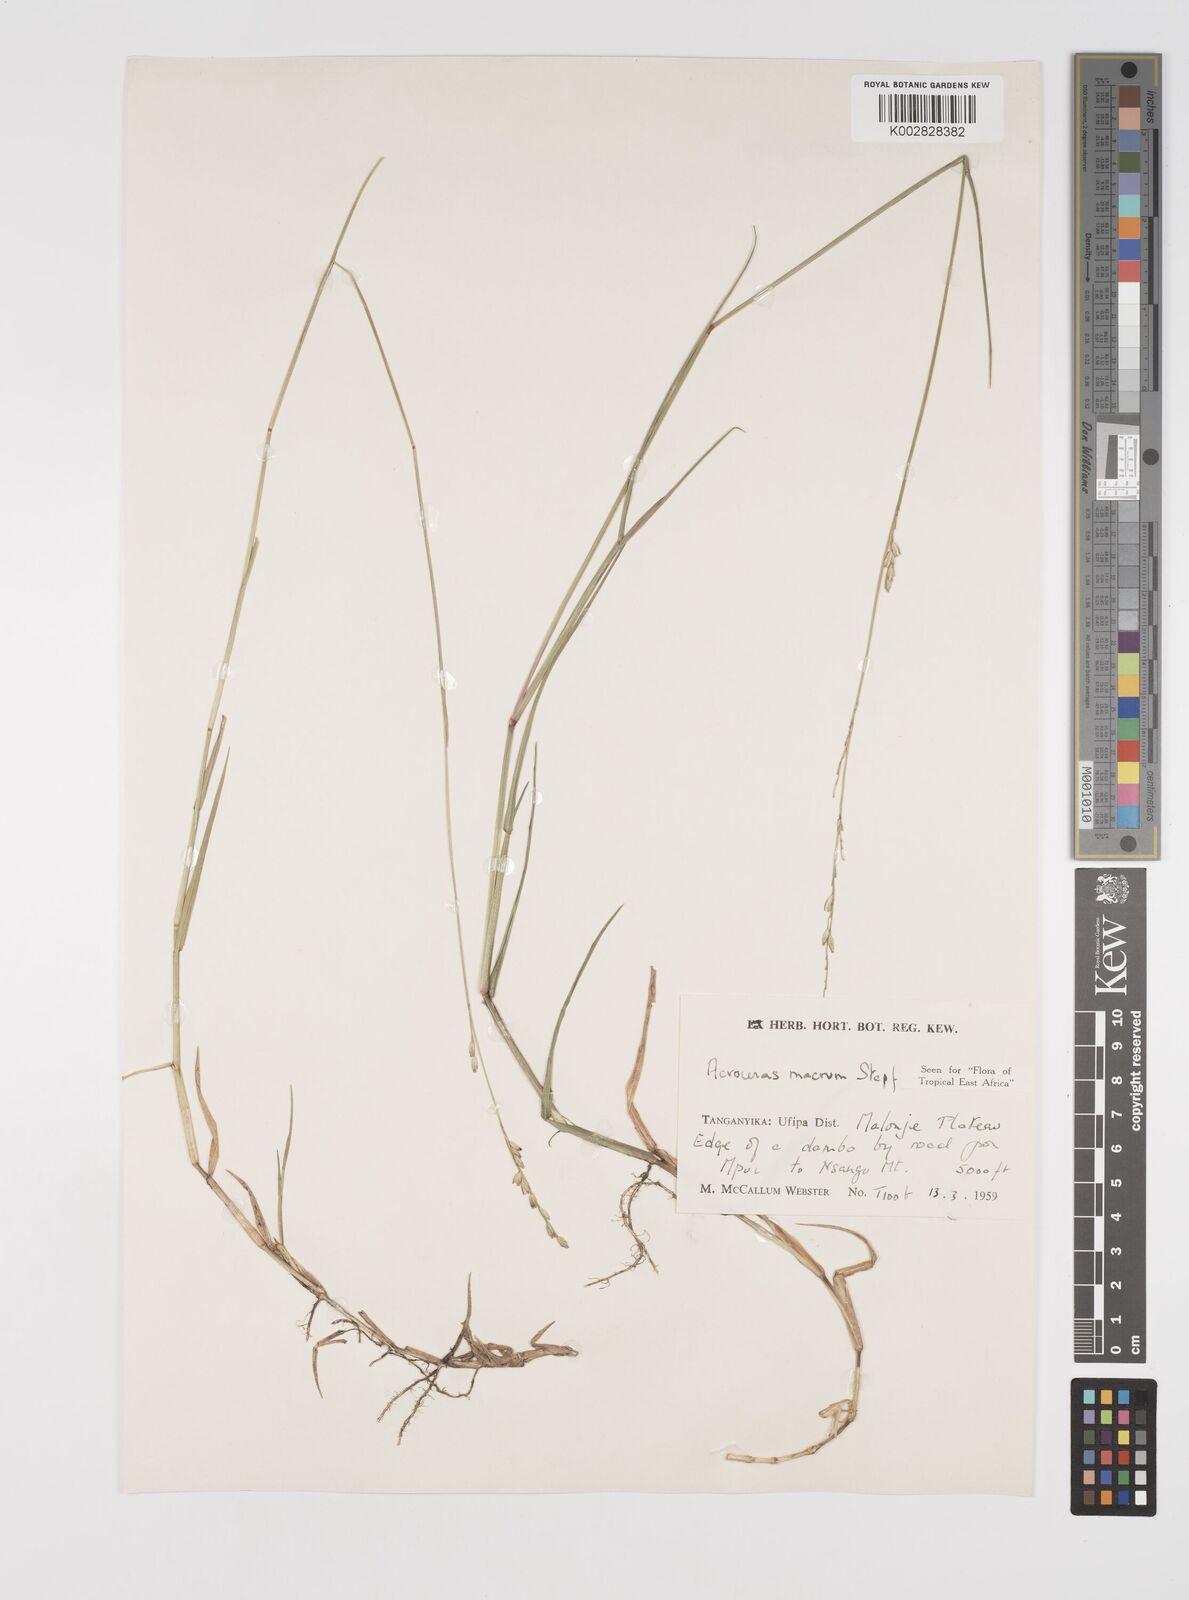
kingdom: Plantae
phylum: Tracheophyta
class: Liliopsida
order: Poales
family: Poaceae
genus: Acroceras
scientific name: Acroceras macrum
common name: Nyl grass
